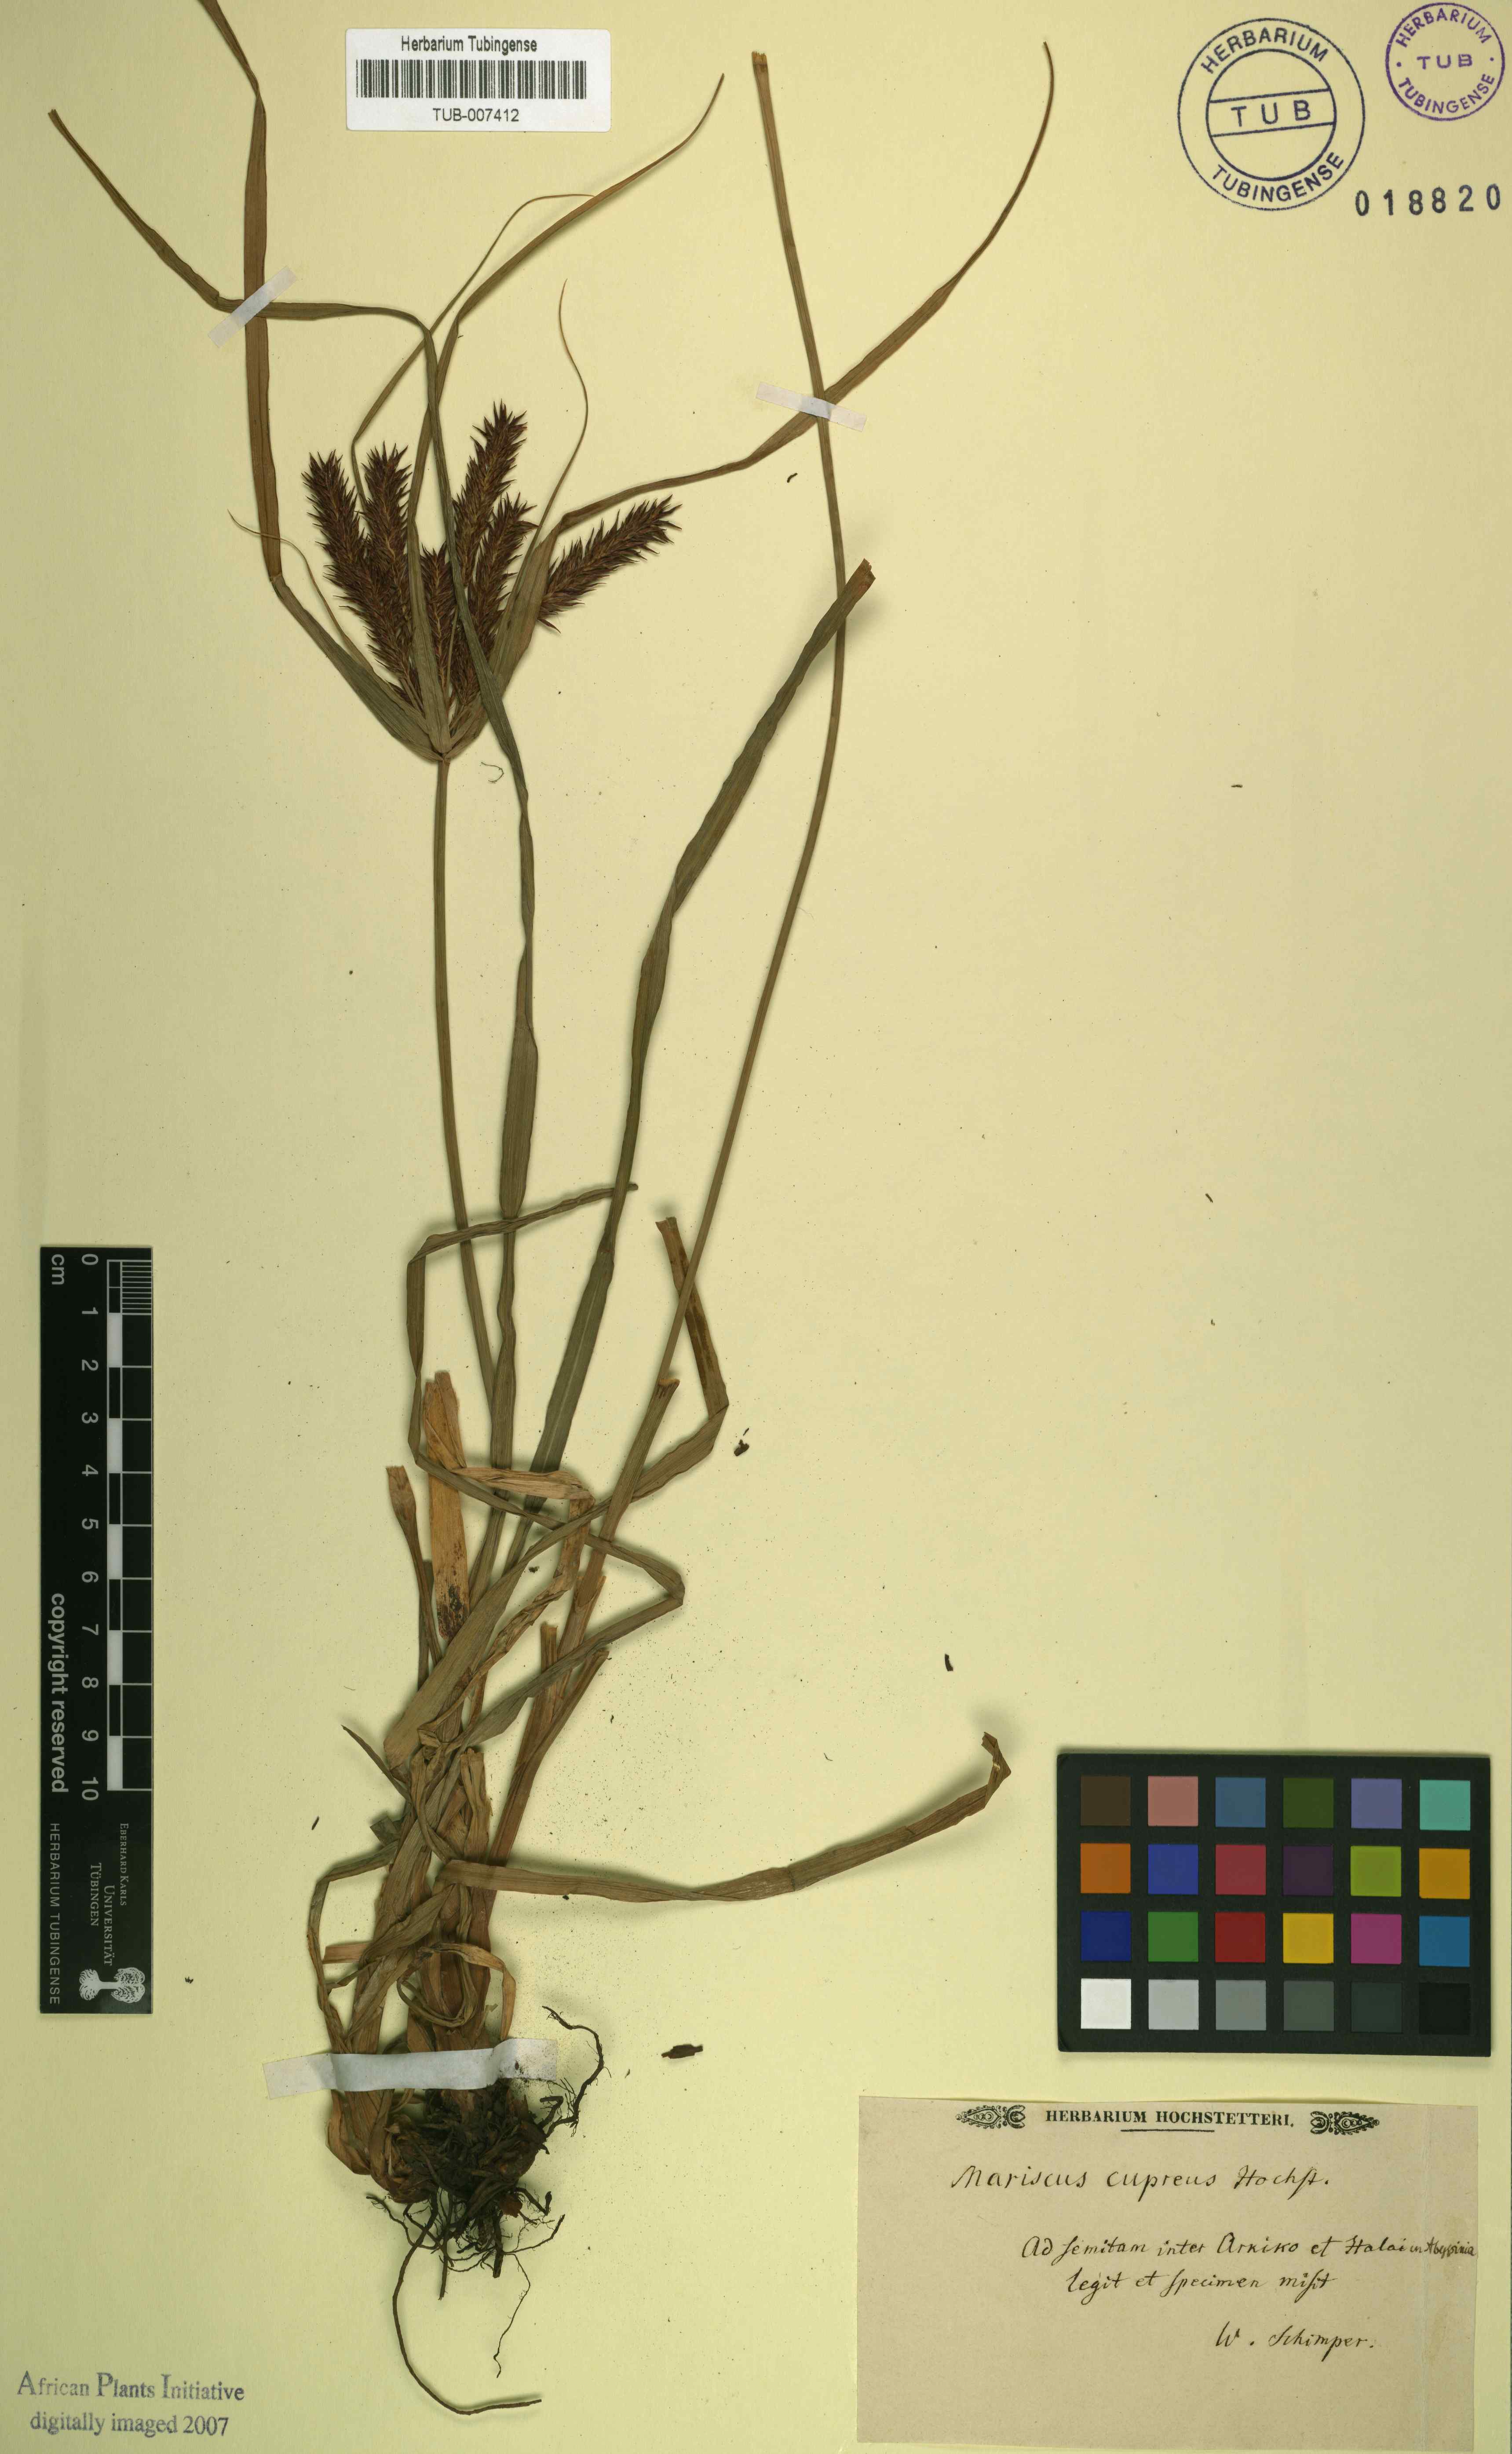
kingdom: Plantae
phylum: Tracheophyta
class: Liliopsida
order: Poales
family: Cyperaceae
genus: Cyperus
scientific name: Cyperus impubes
